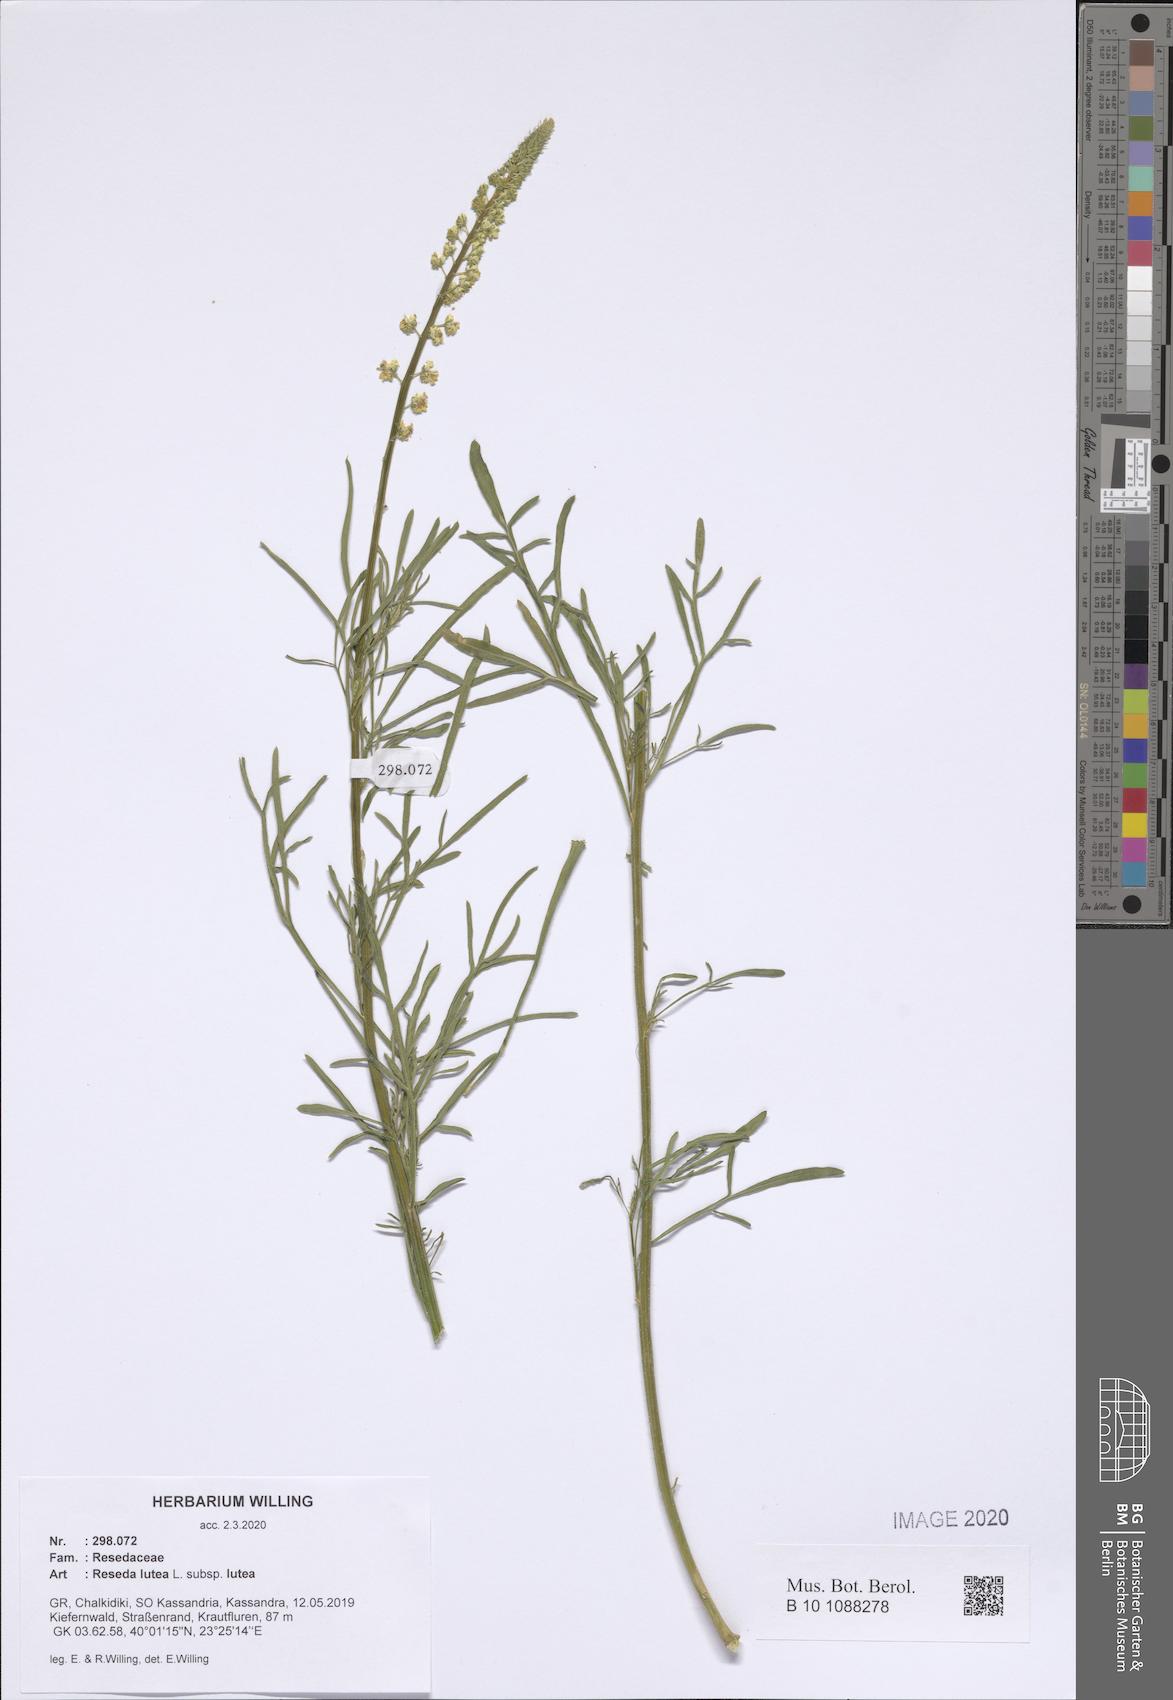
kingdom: Plantae
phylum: Tracheophyta
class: Magnoliopsida
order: Brassicales
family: Resedaceae
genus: Reseda
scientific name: Reseda lutea
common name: Wild mignonette
